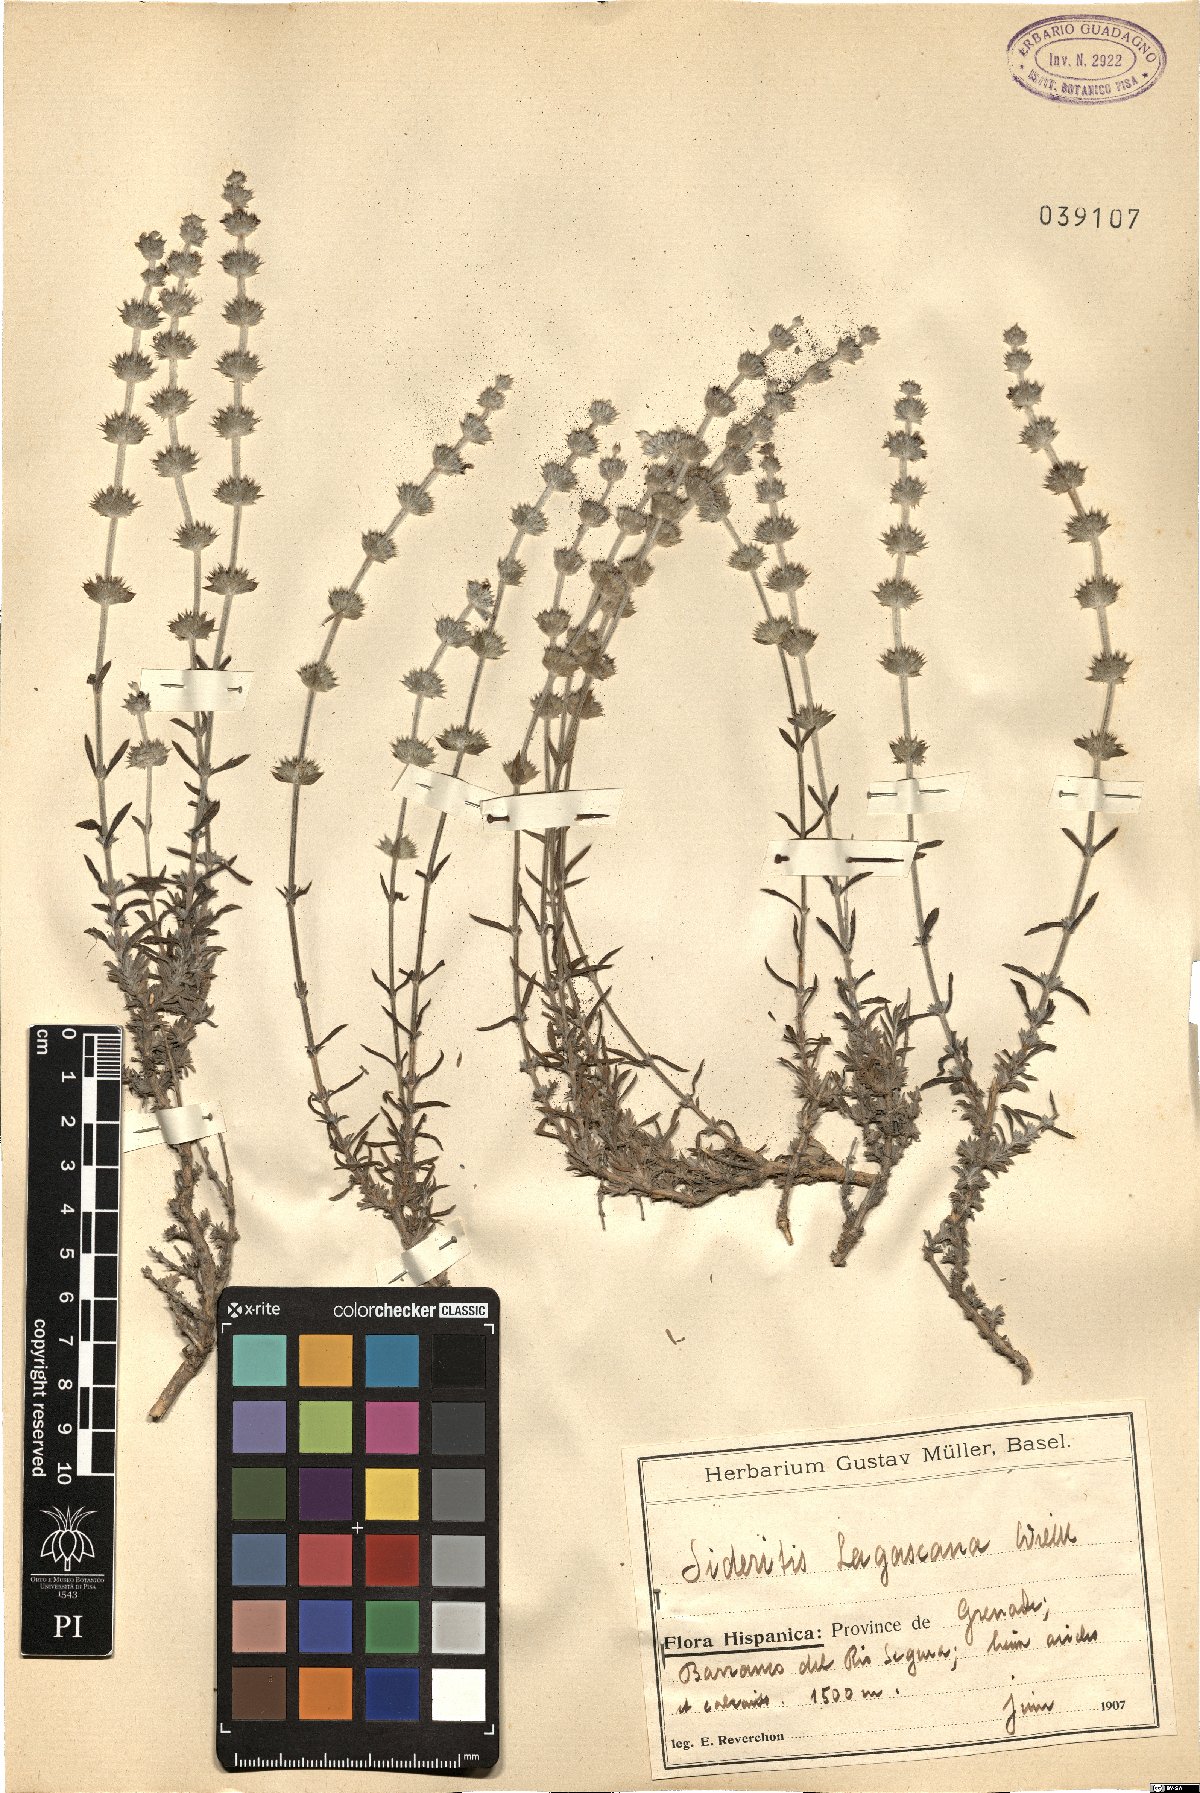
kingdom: Plantae
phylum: Tracheophyta
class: Magnoliopsida
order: Lamiales
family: Lamiaceae
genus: Sideritis
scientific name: Sideritis tragoriganum
